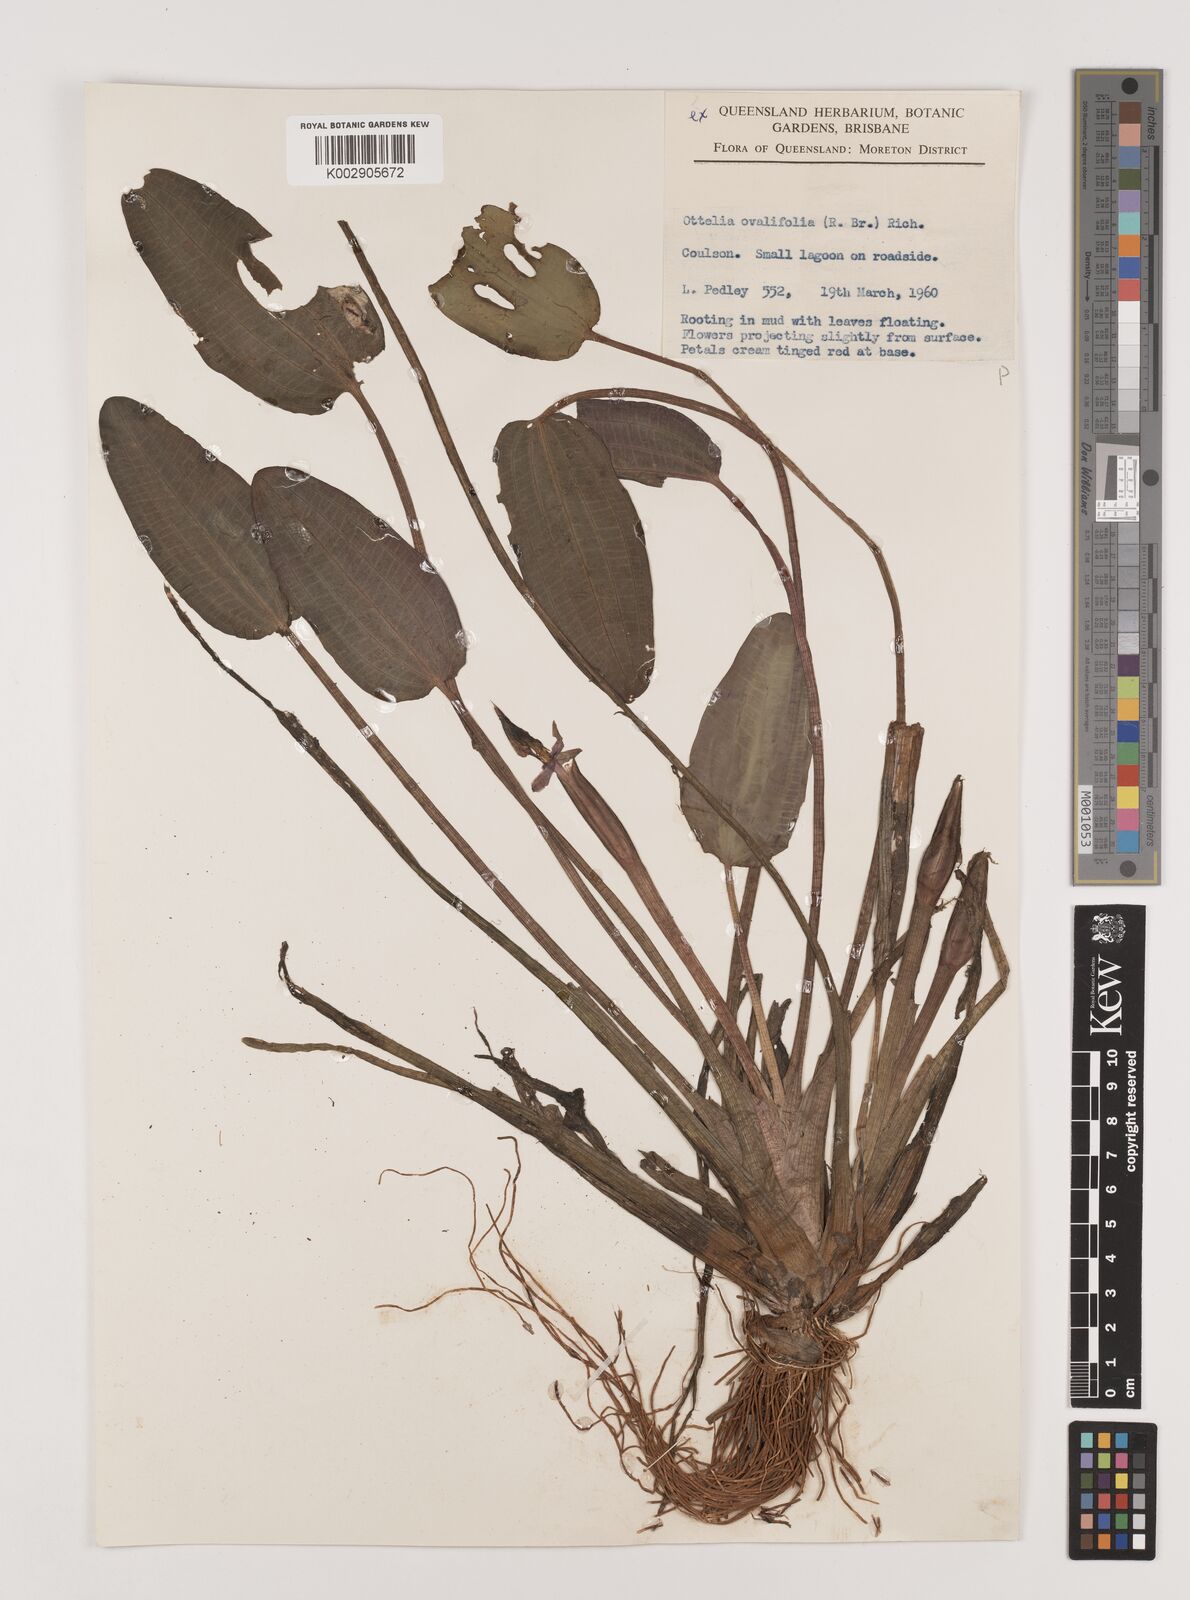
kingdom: Plantae
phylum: Tracheophyta
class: Liliopsida
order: Alismatales
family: Hydrocharitaceae
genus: Ottelia
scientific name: Ottelia ovalifolia
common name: Swamp-lily
